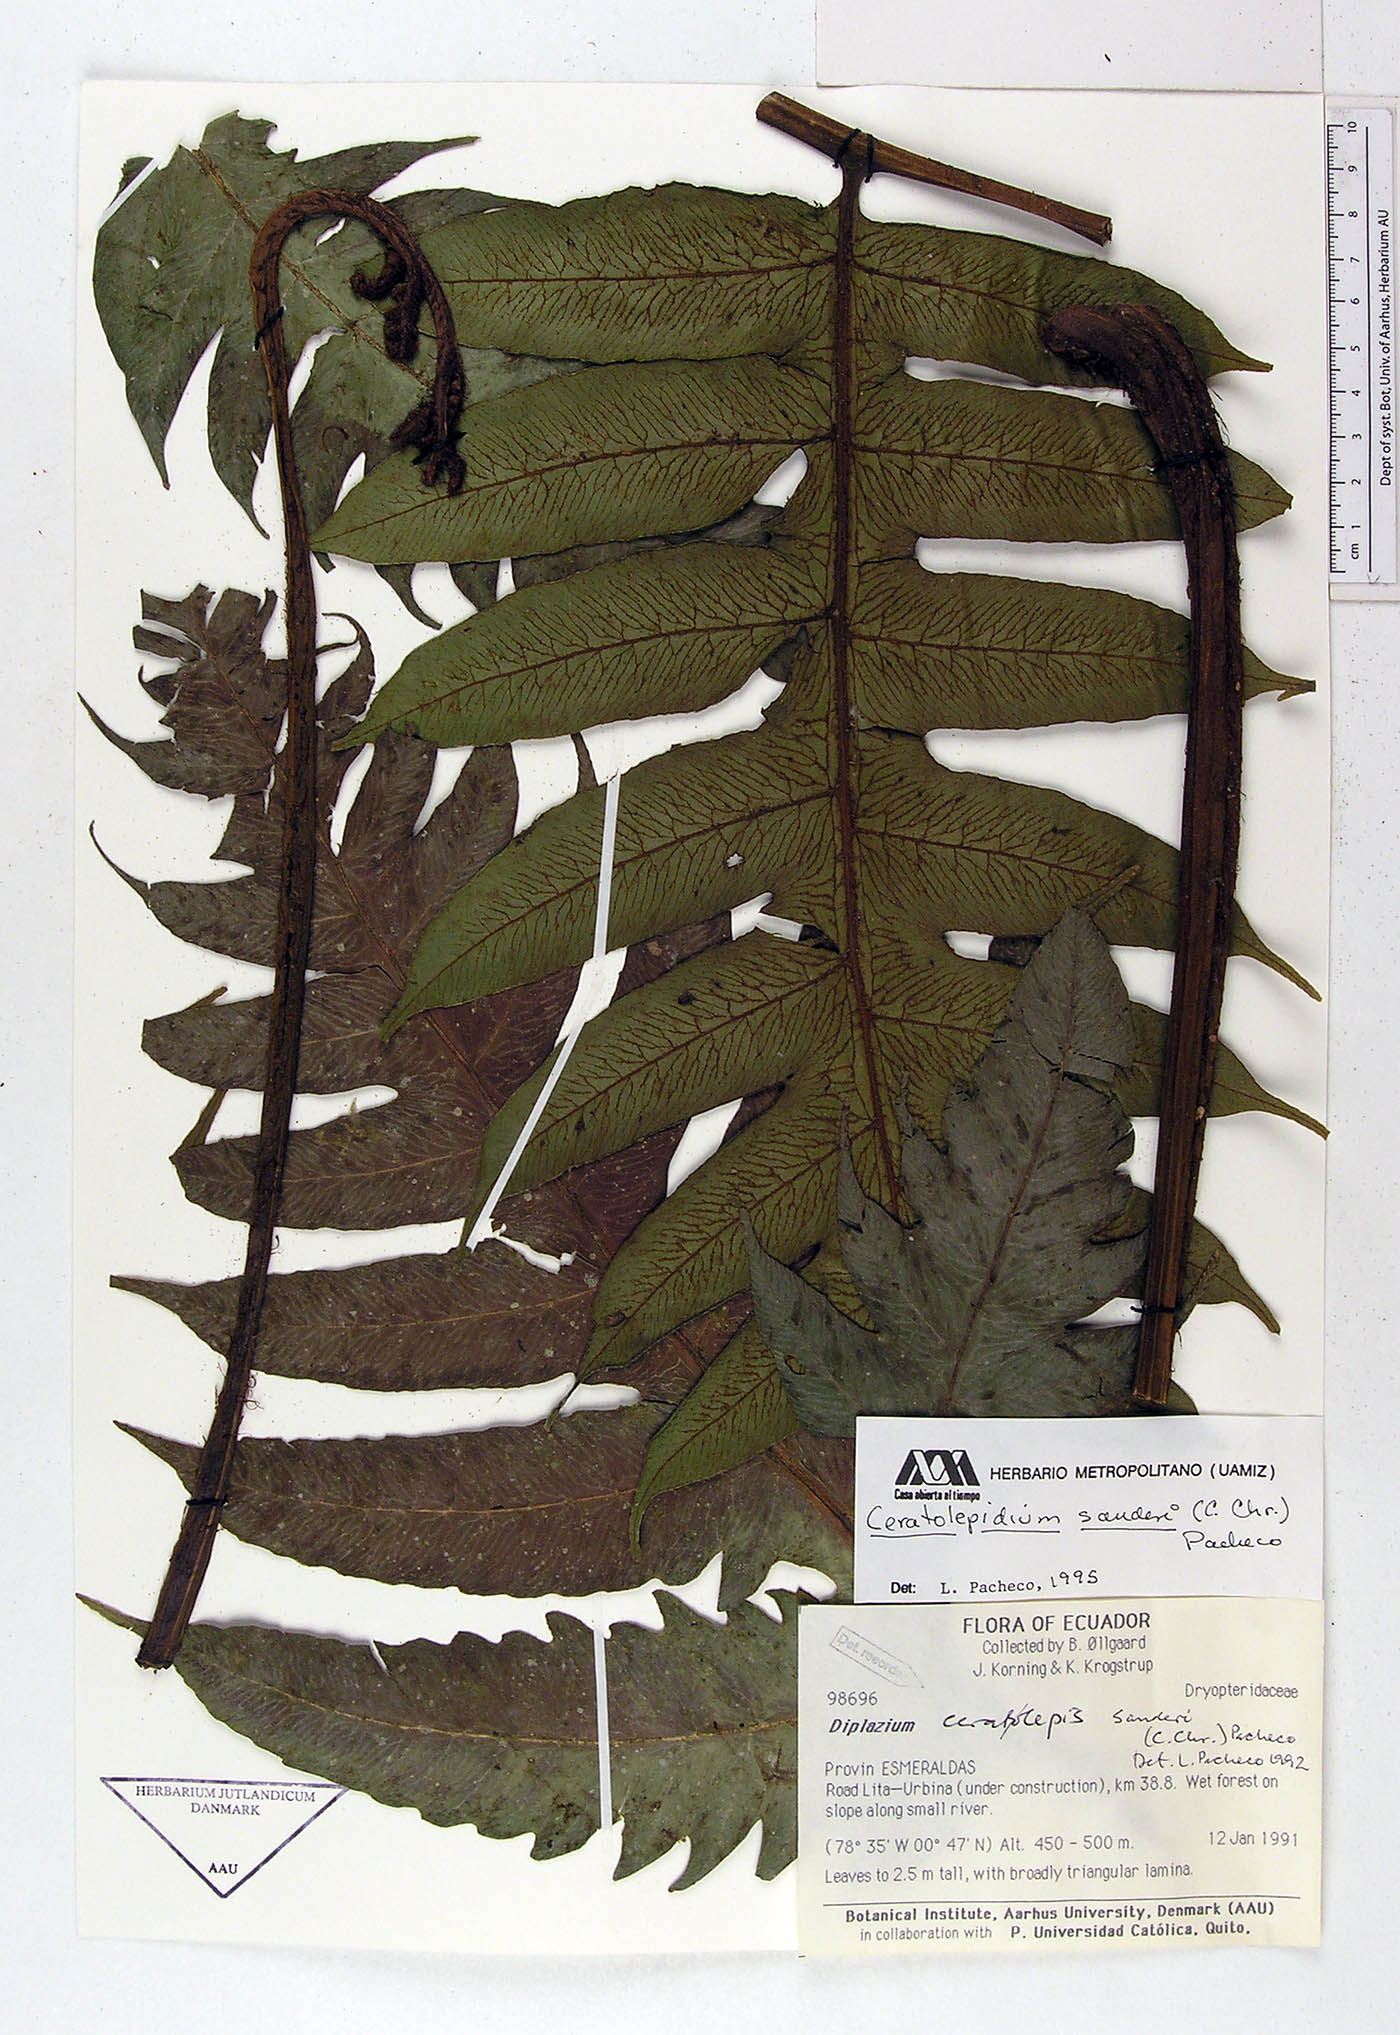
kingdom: Plantae
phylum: Tracheophyta
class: Polypodiopsida
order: Polypodiales
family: Athyriaceae
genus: Diplazium
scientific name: Diplazium sanderi
